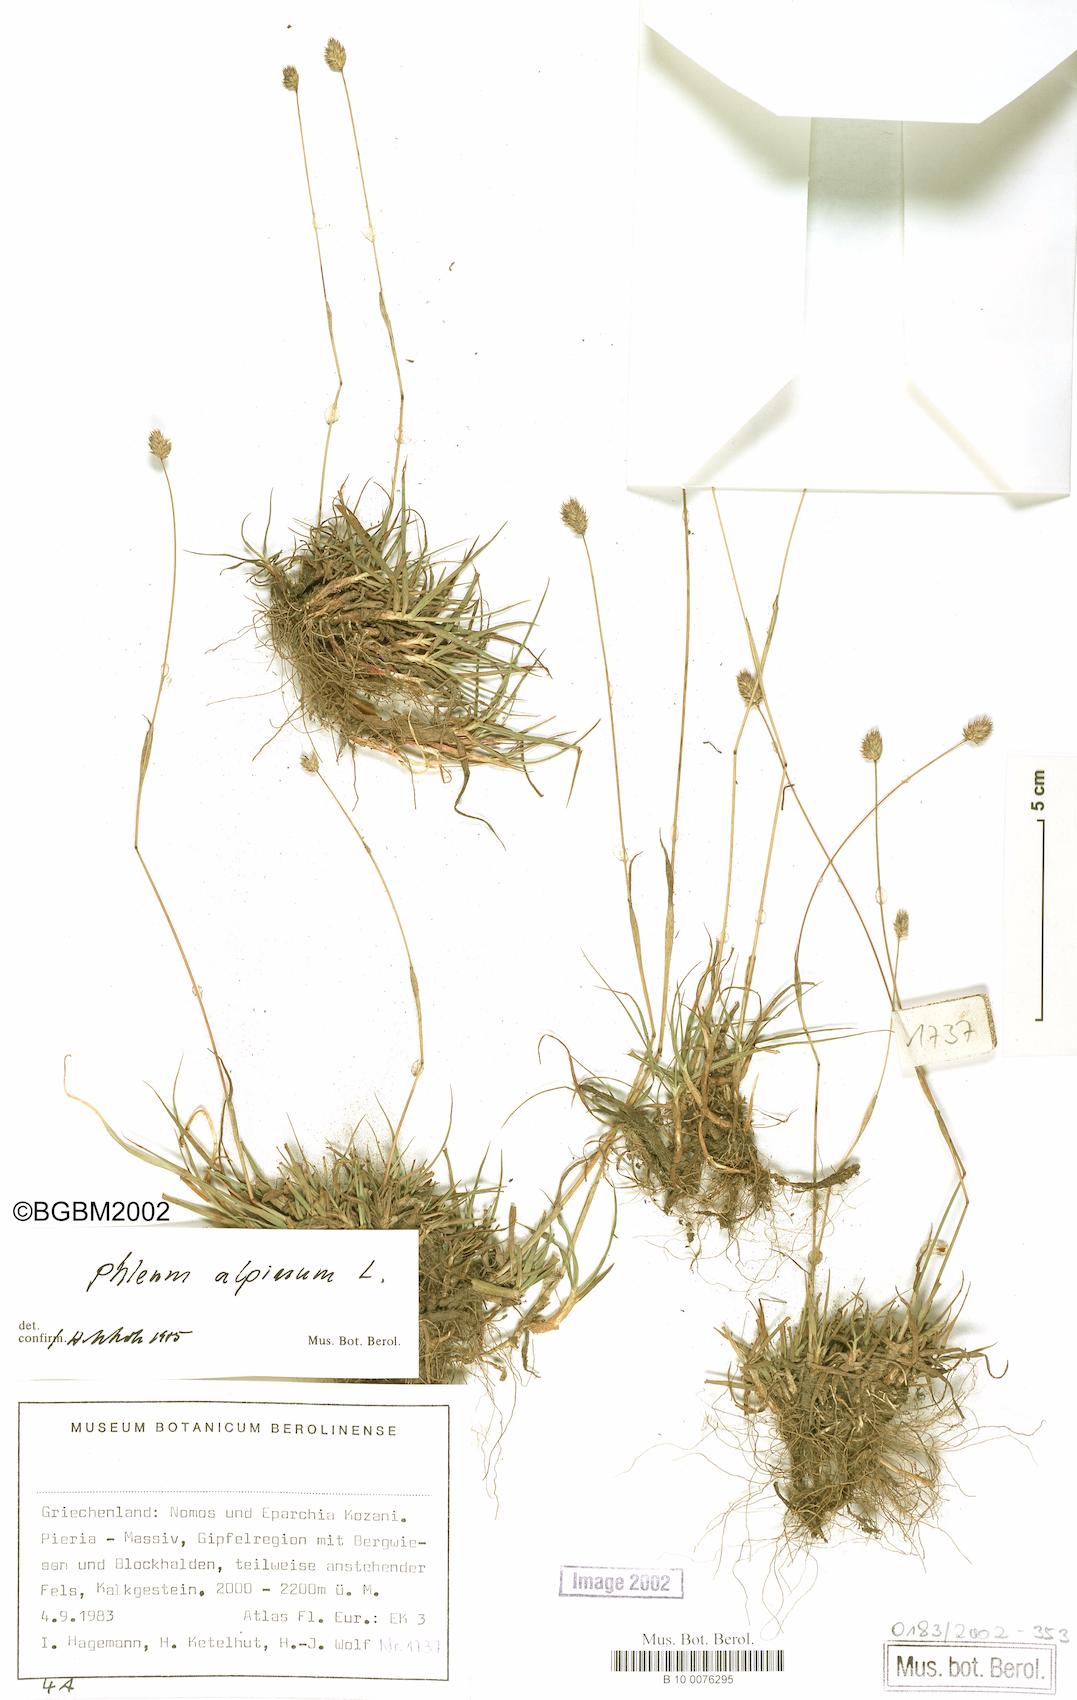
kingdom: Plantae
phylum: Tracheophyta
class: Liliopsida
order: Poales
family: Poaceae
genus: Phleum
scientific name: Phleum alpinum
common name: Alpine cat's-tail
